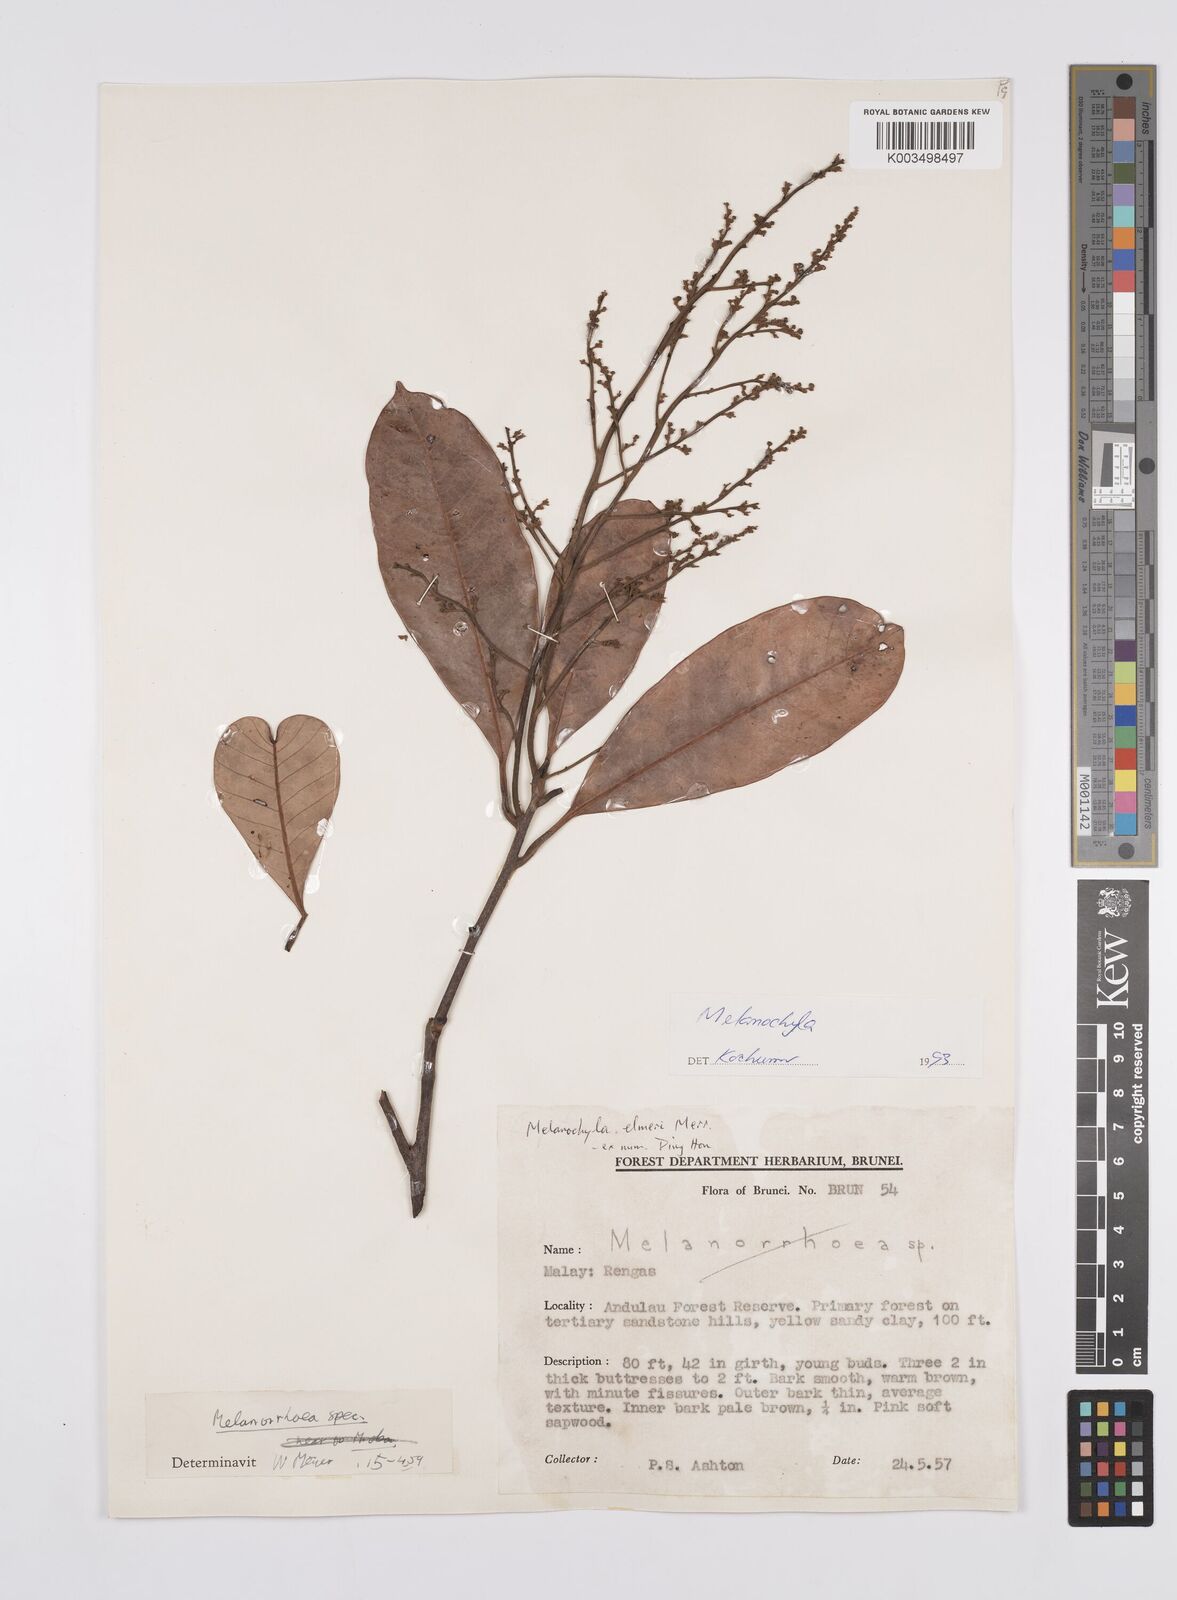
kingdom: Plantae
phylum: Tracheophyta
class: Magnoliopsida
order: Sapindales
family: Anacardiaceae
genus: Melanochyla
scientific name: Melanochyla elmeri
